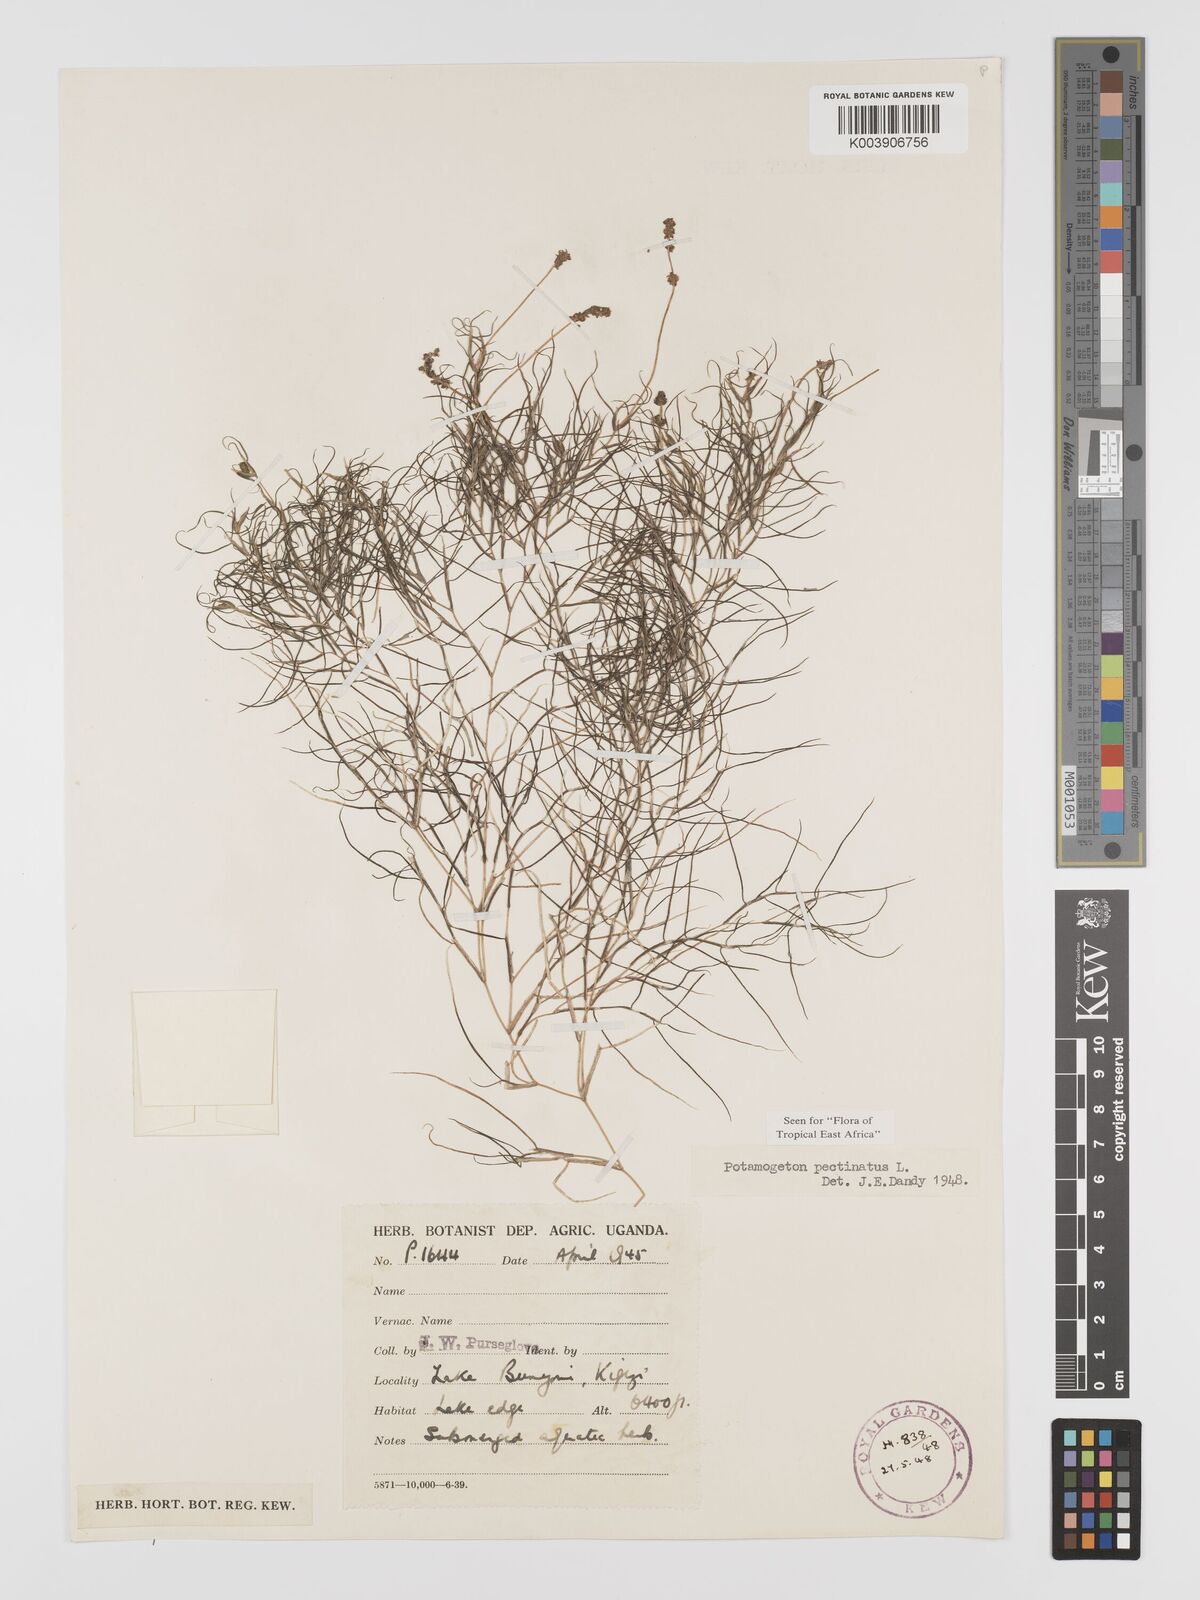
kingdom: Plantae
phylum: Tracheophyta
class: Liliopsida
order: Alismatales
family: Potamogetonaceae
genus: Stuckenia
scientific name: Stuckenia pectinata
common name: Sago pondweed
